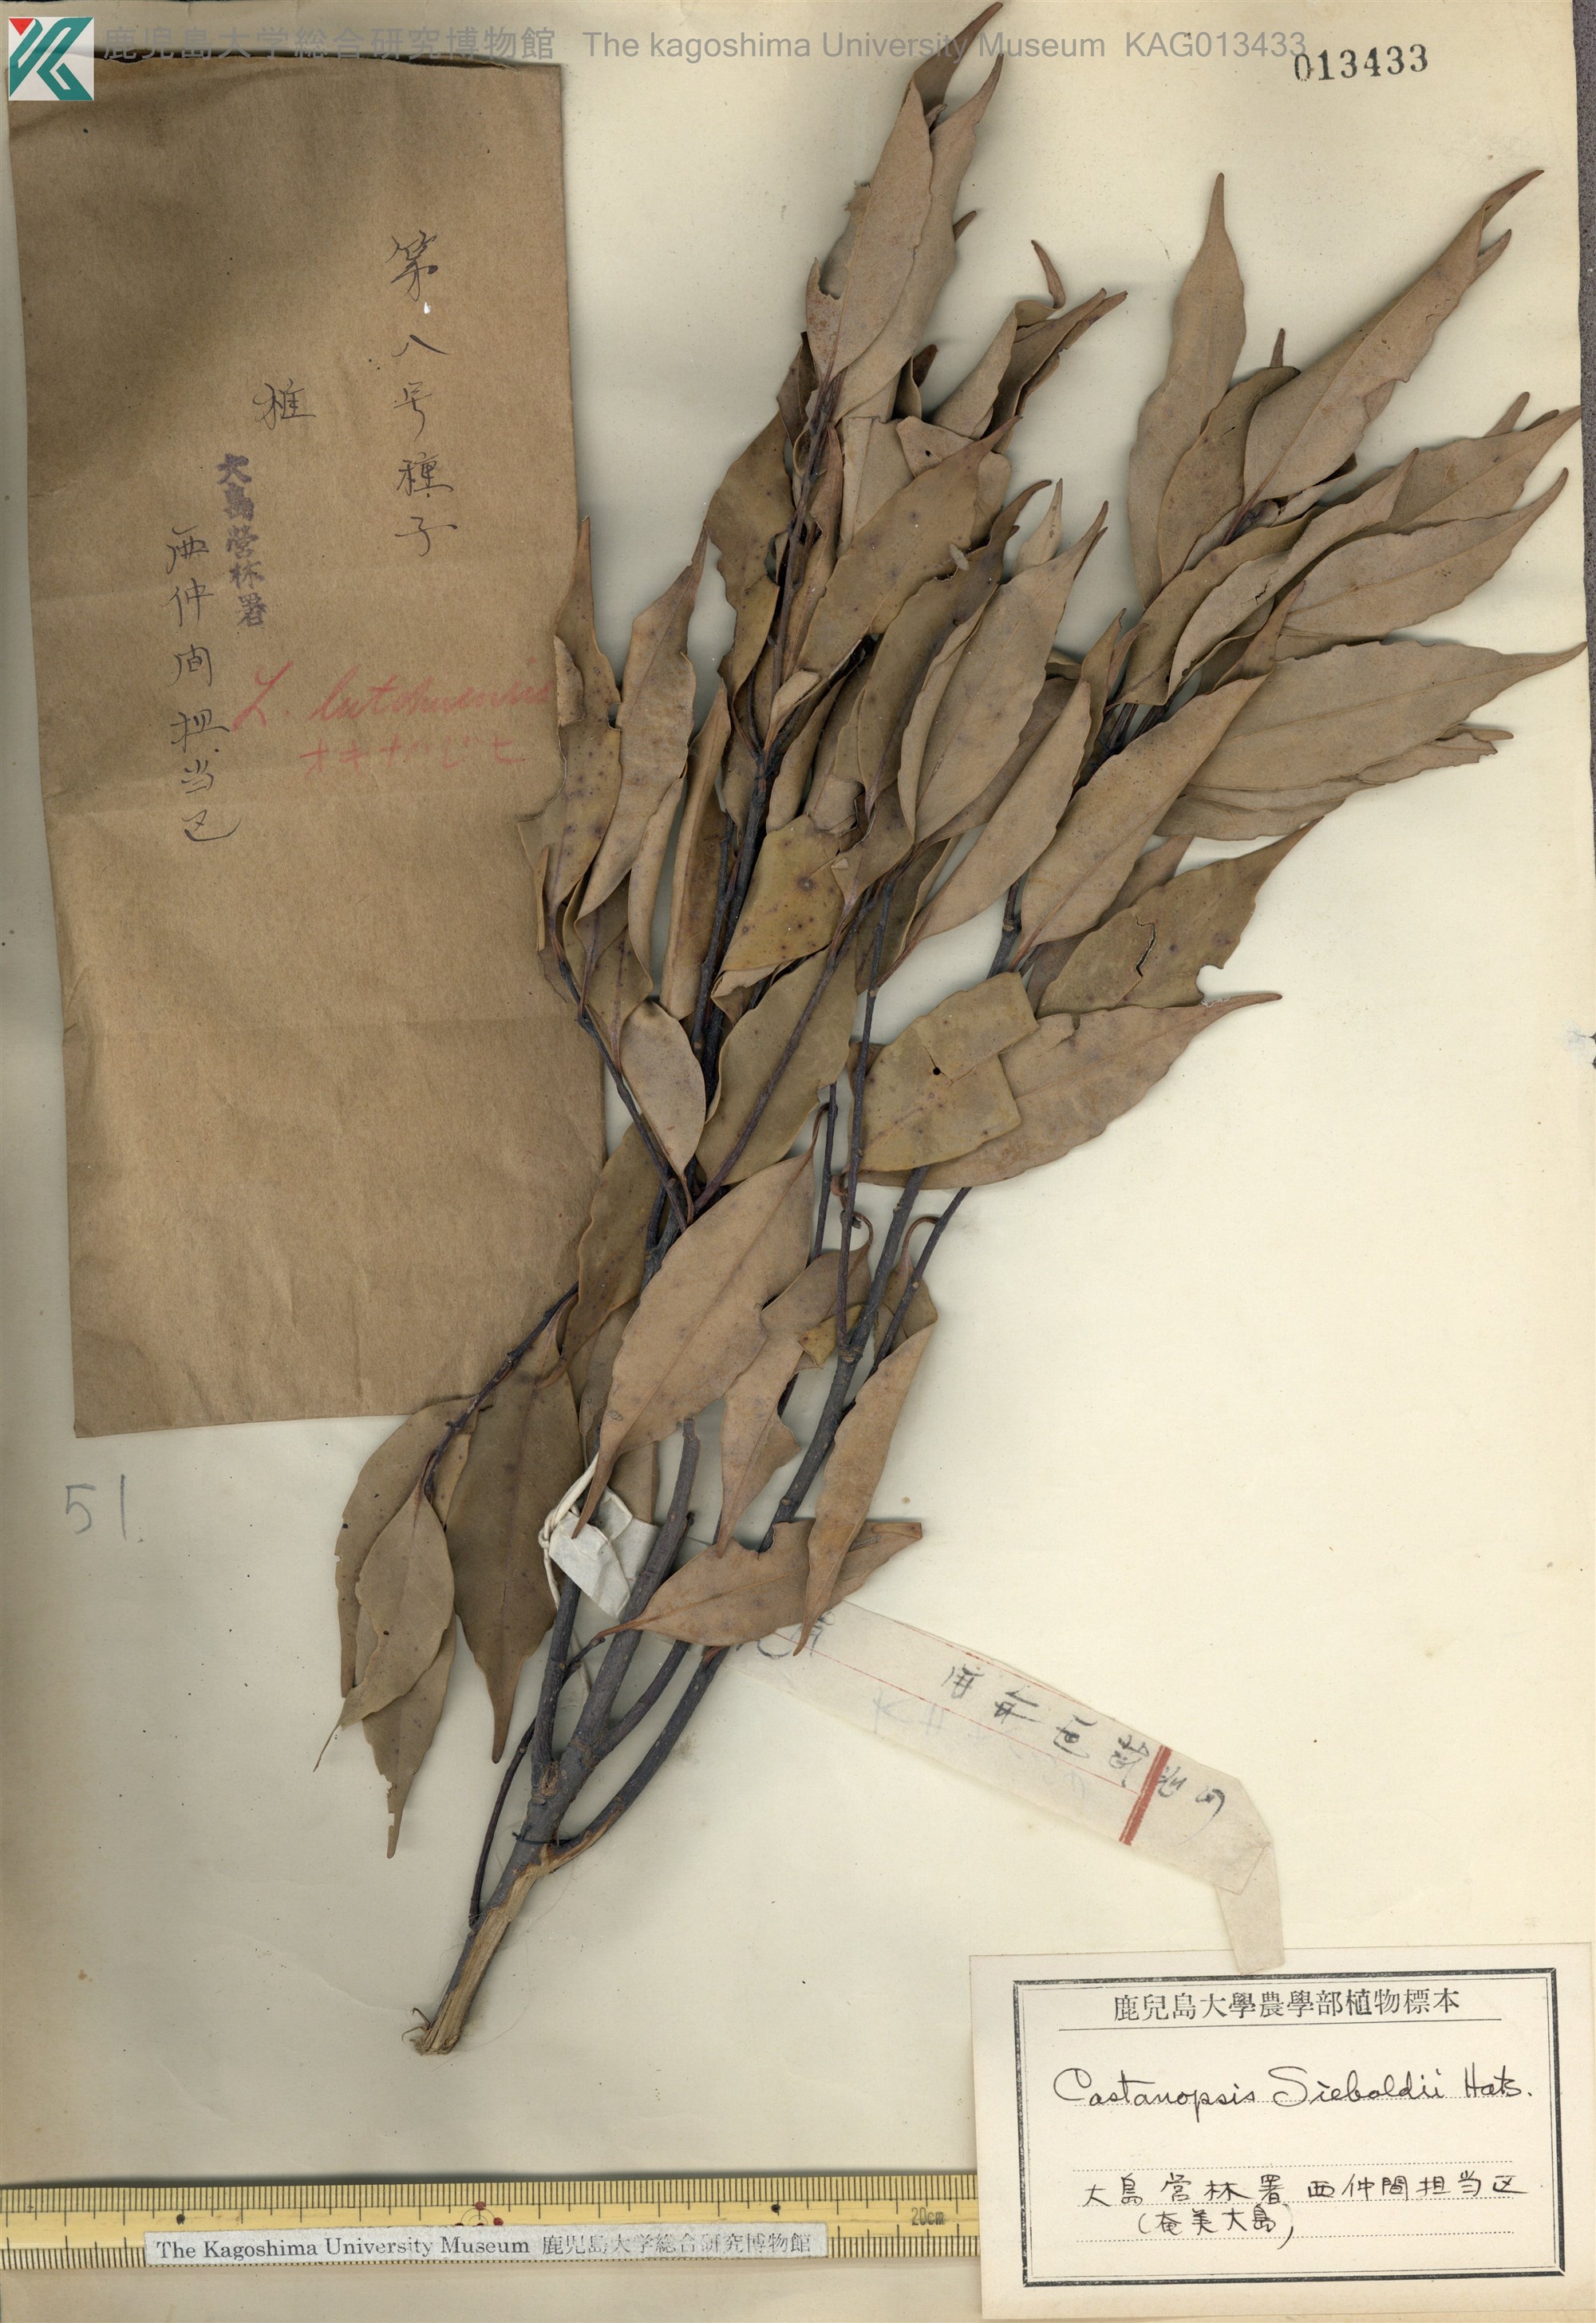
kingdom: Plantae
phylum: Tracheophyta
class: Magnoliopsida
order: Fagales
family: Fagaceae
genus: Castanopsis
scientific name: Castanopsis sieboldii
